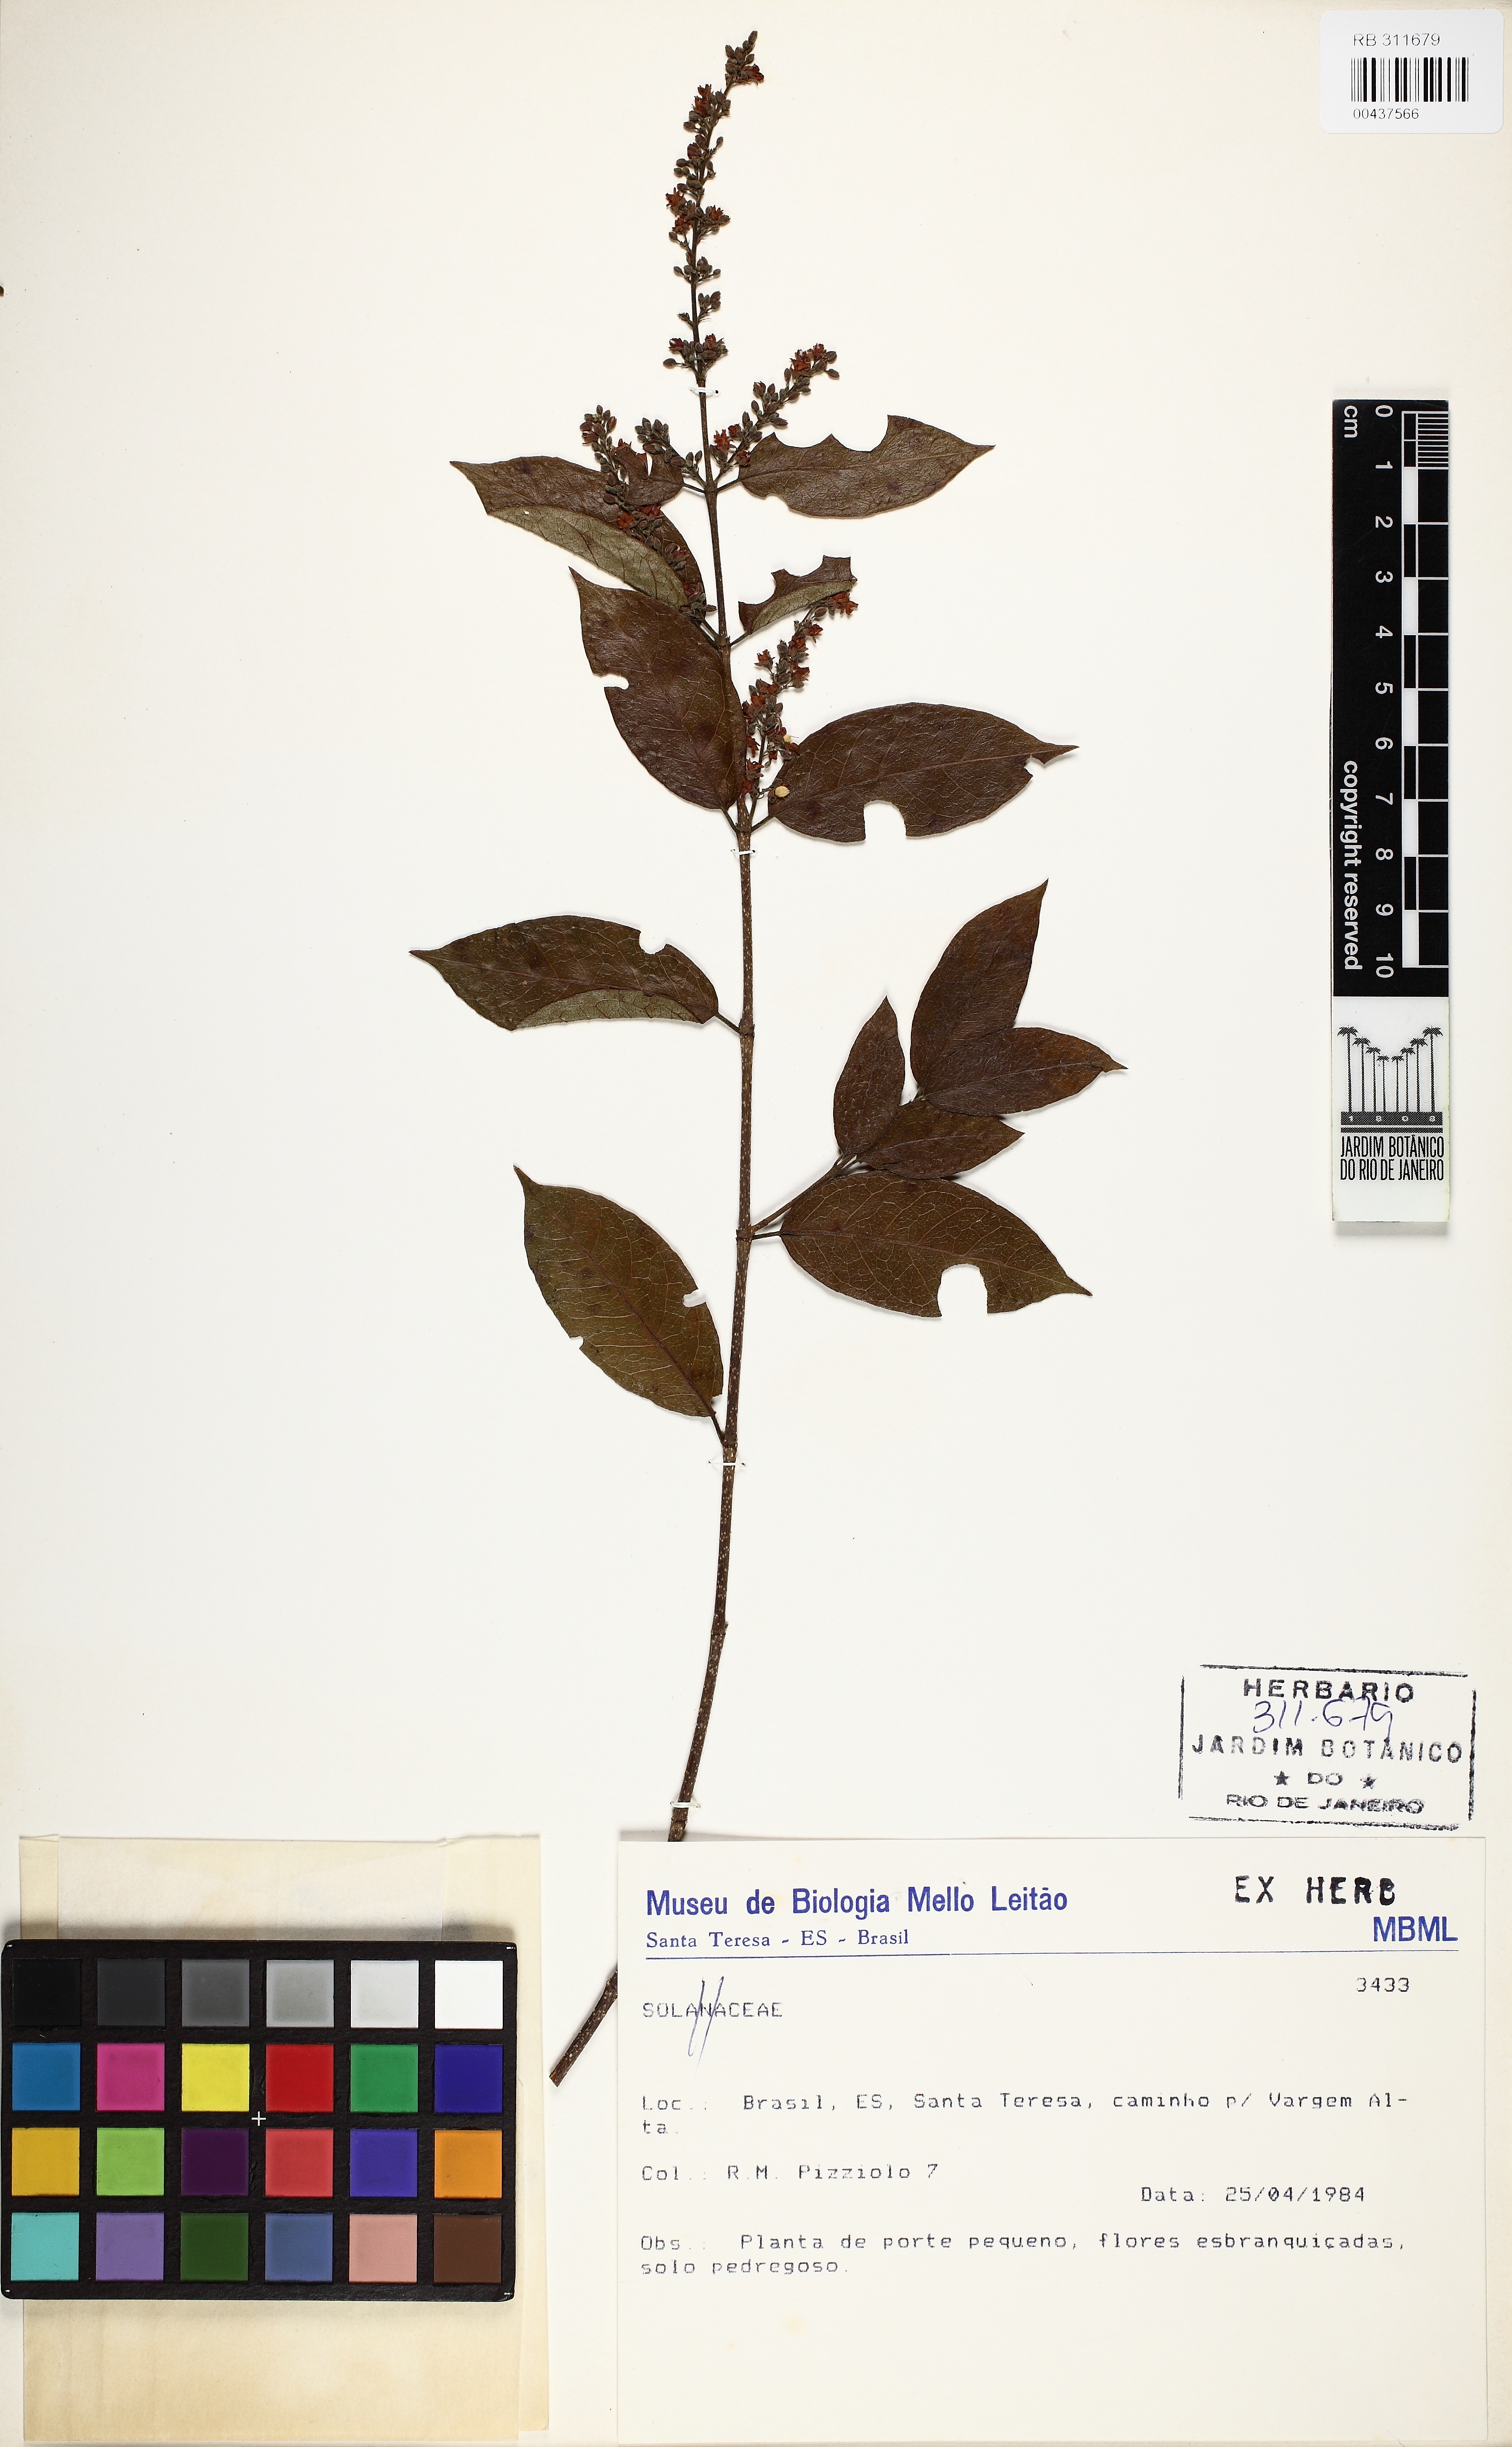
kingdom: Plantae
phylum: Tracheophyta
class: Magnoliopsida
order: Malpighiales
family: Trigoniaceae
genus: Trigonia
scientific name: Trigonia eriosperma
